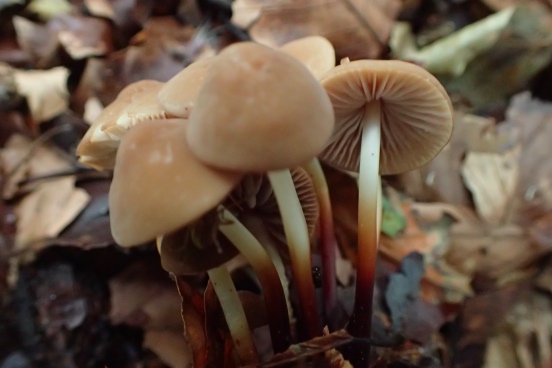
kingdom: Fungi
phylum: Basidiomycota
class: Agaricomycetes
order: Agaricales
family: Marasmiaceae
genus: Marasmius
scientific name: Marasmius wynneae
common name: hvælvet bruskhat
